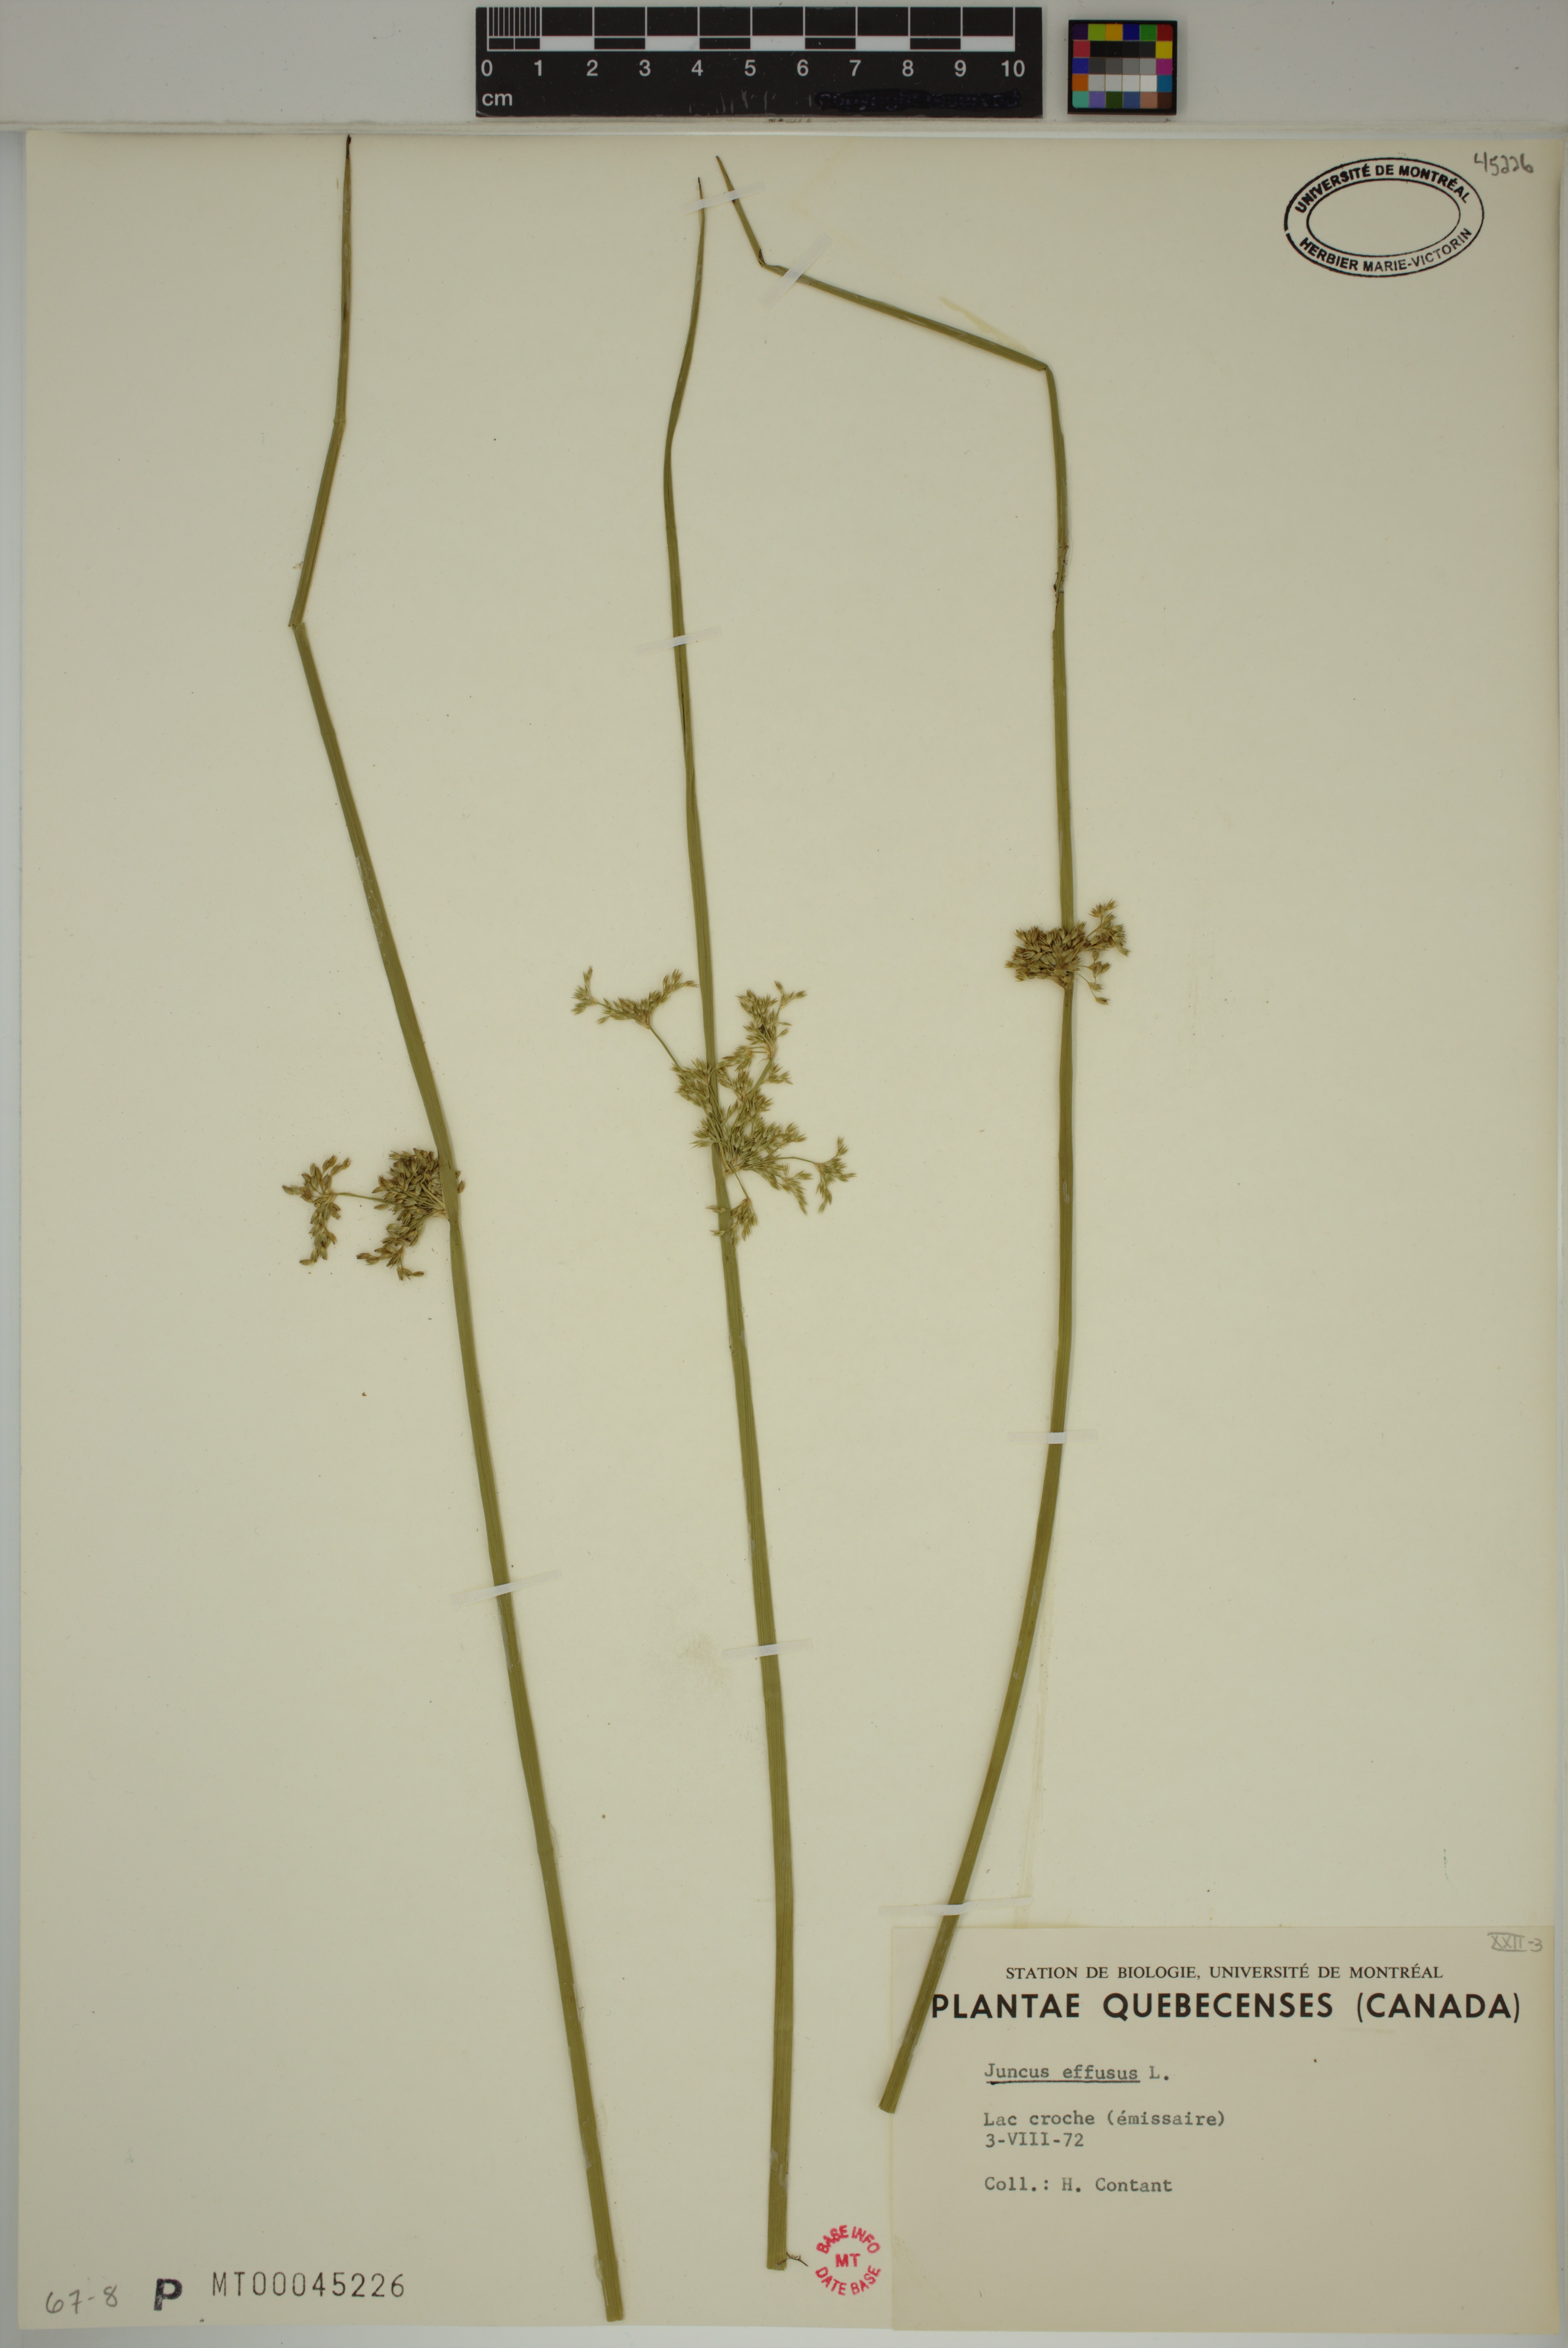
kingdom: Plantae
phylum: Tracheophyta
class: Liliopsida
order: Poales
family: Juncaceae
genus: Juncus
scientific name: Juncus effusus
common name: Soft rush
